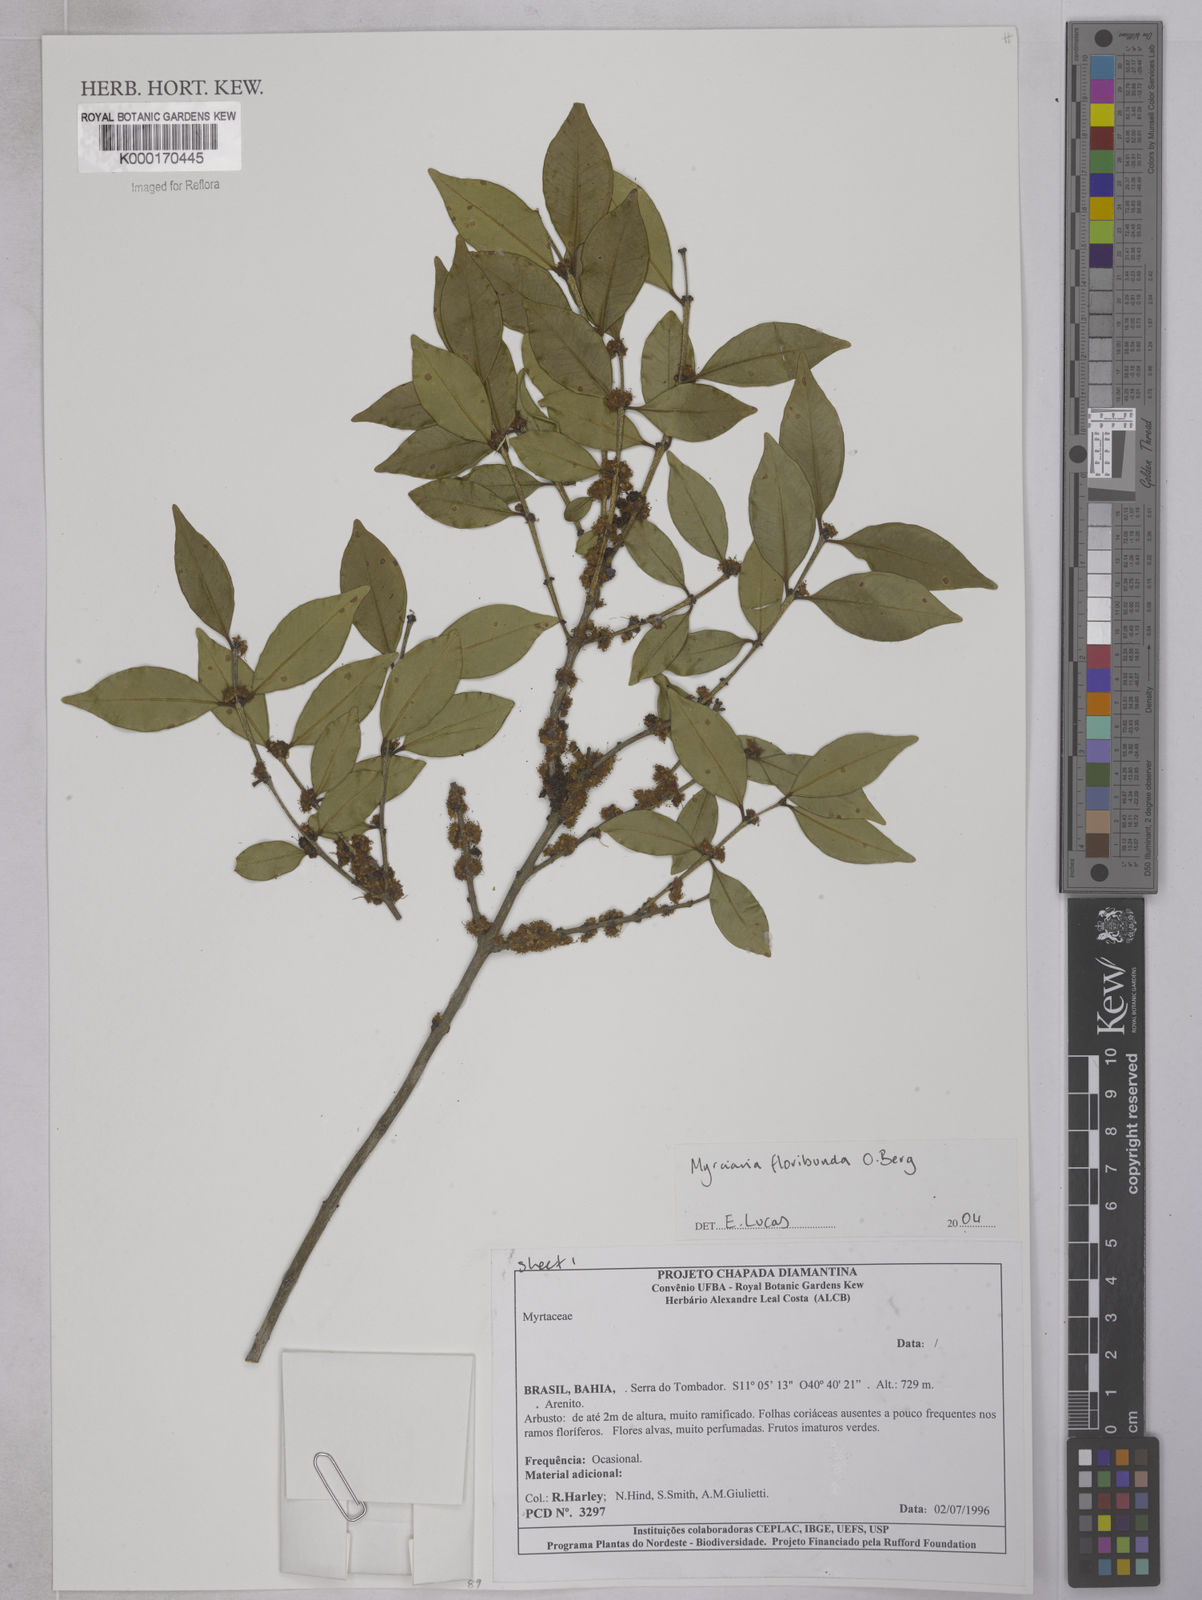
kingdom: Plantae
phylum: Tracheophyta
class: Magnoliopsida
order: Myrtales
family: Myrtaceae
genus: Myrciaria
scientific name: Myrciaria floribunda
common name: Guavaberry
